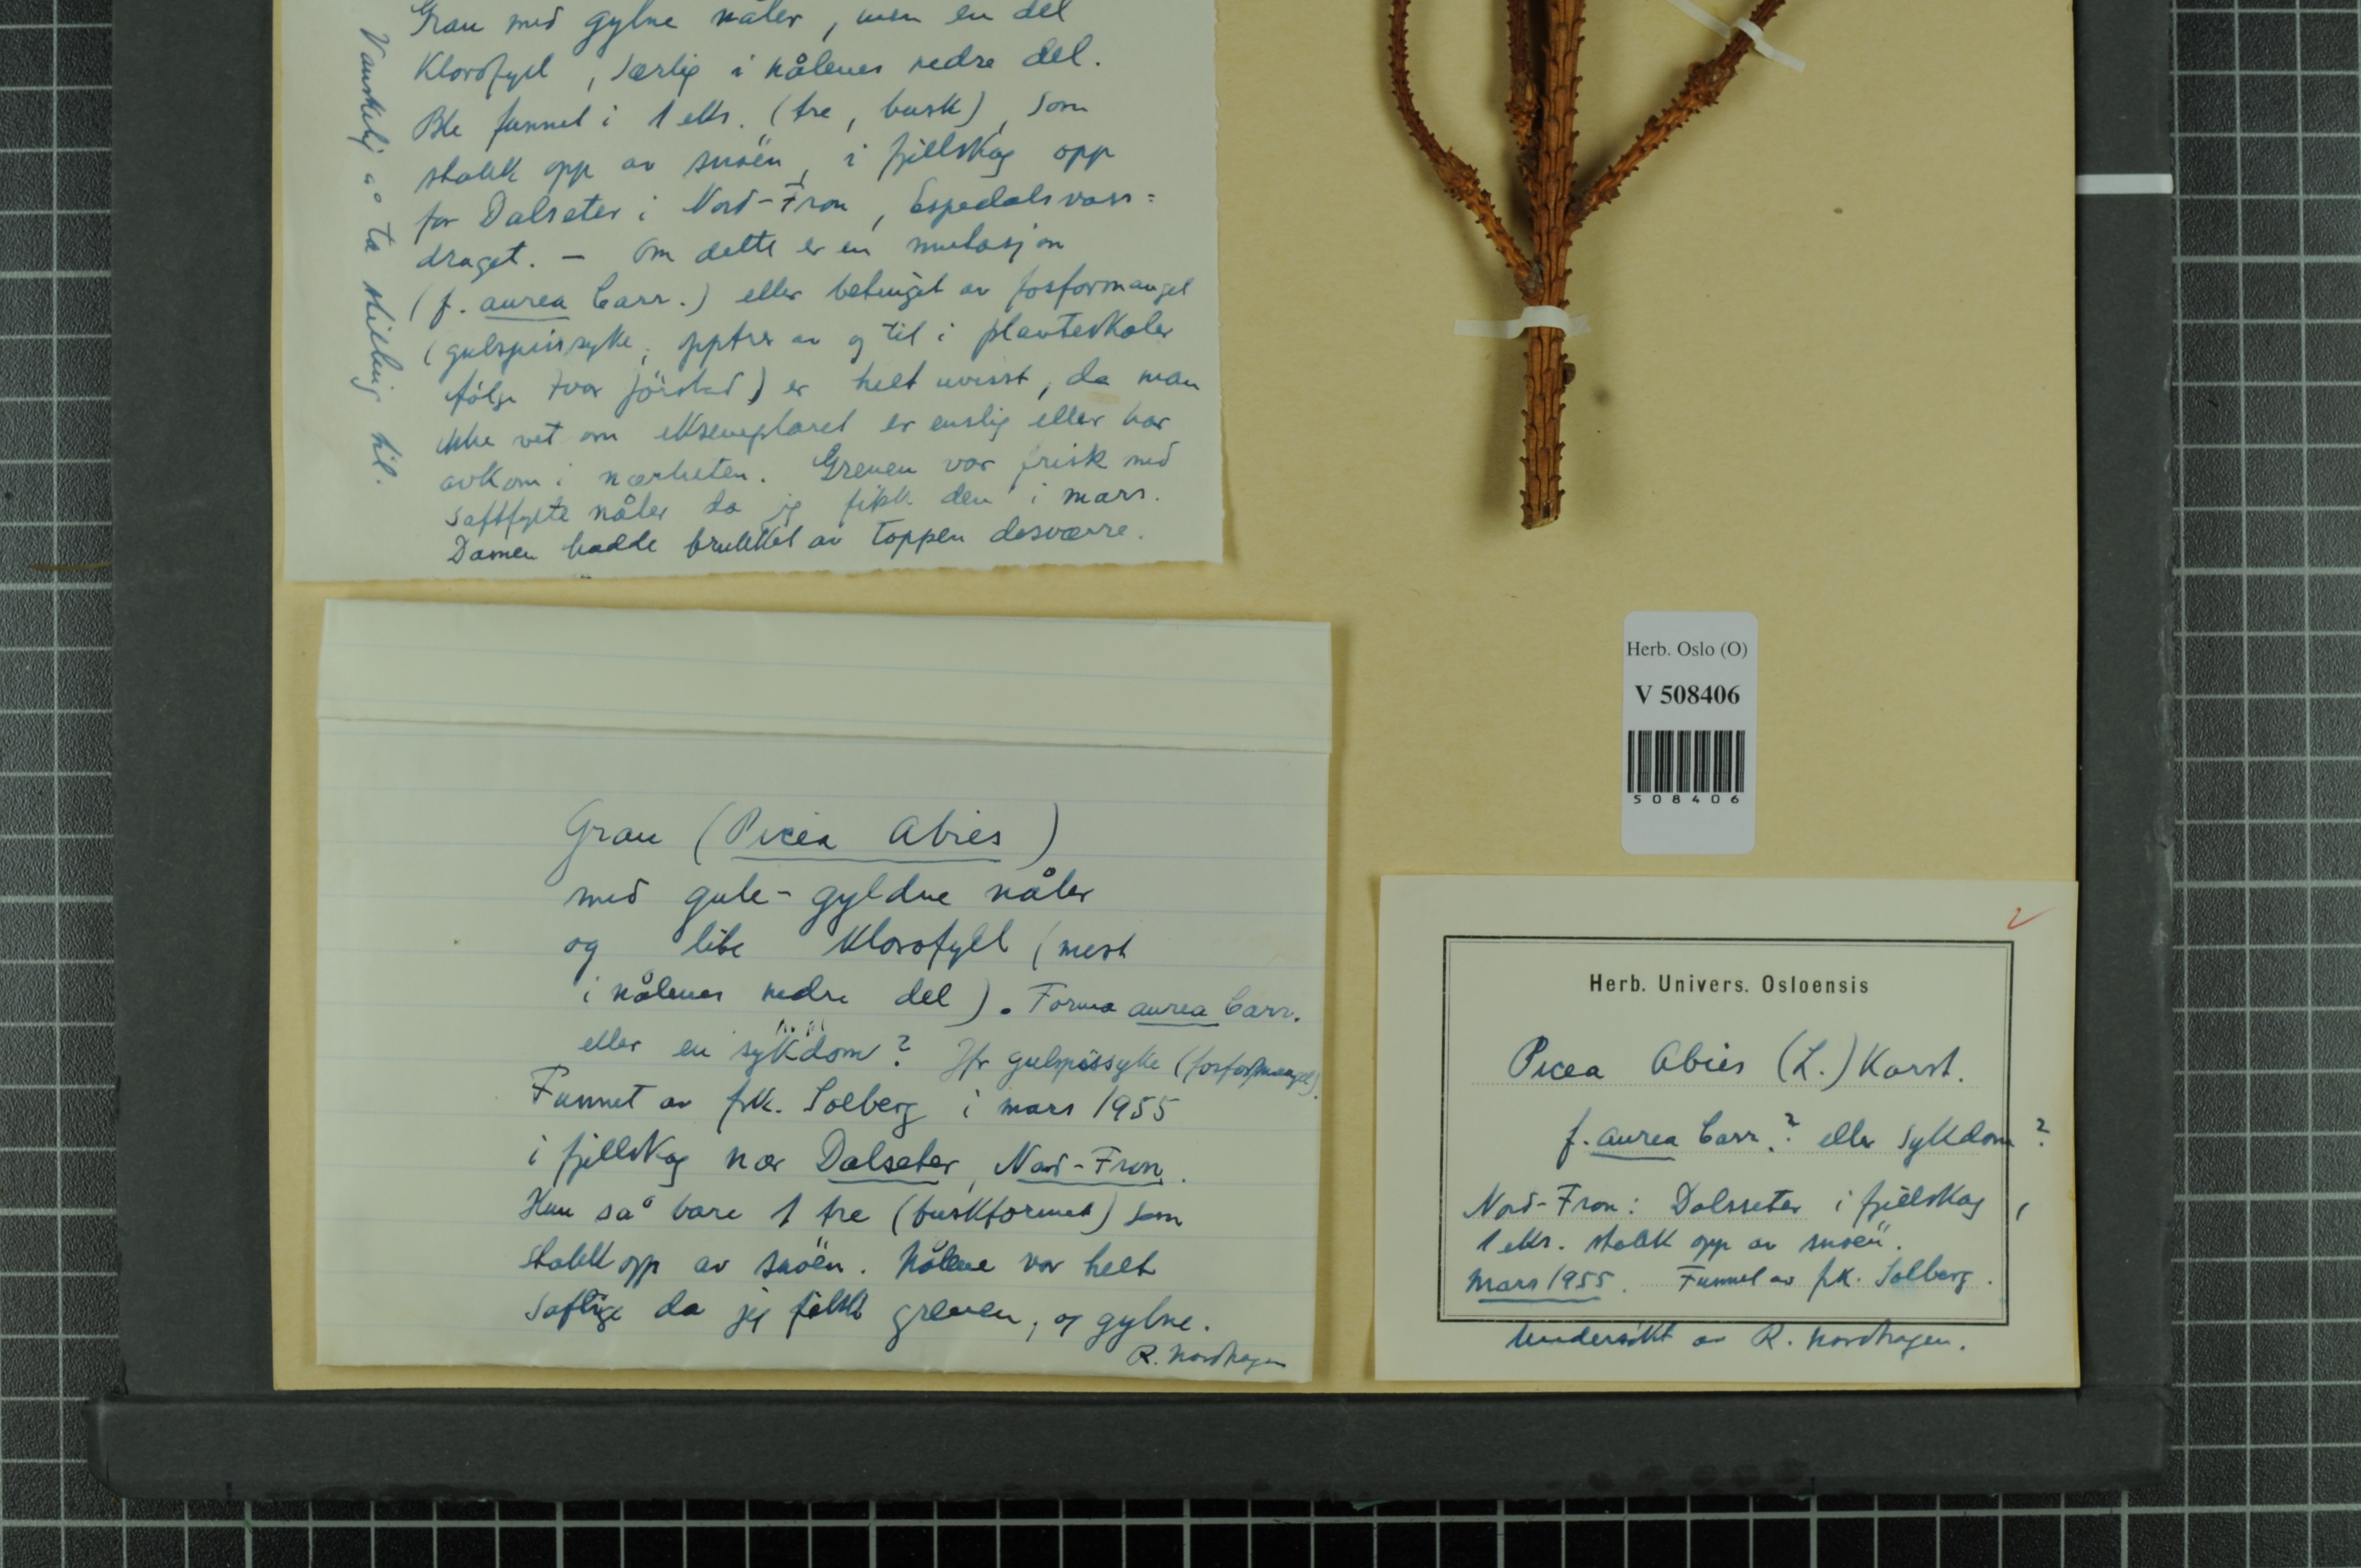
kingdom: Plantae
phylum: Tracheophyta
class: Pinopsida
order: Pinales
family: Pinaceae
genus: Picea
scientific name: Picea abies
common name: Norway spruce
